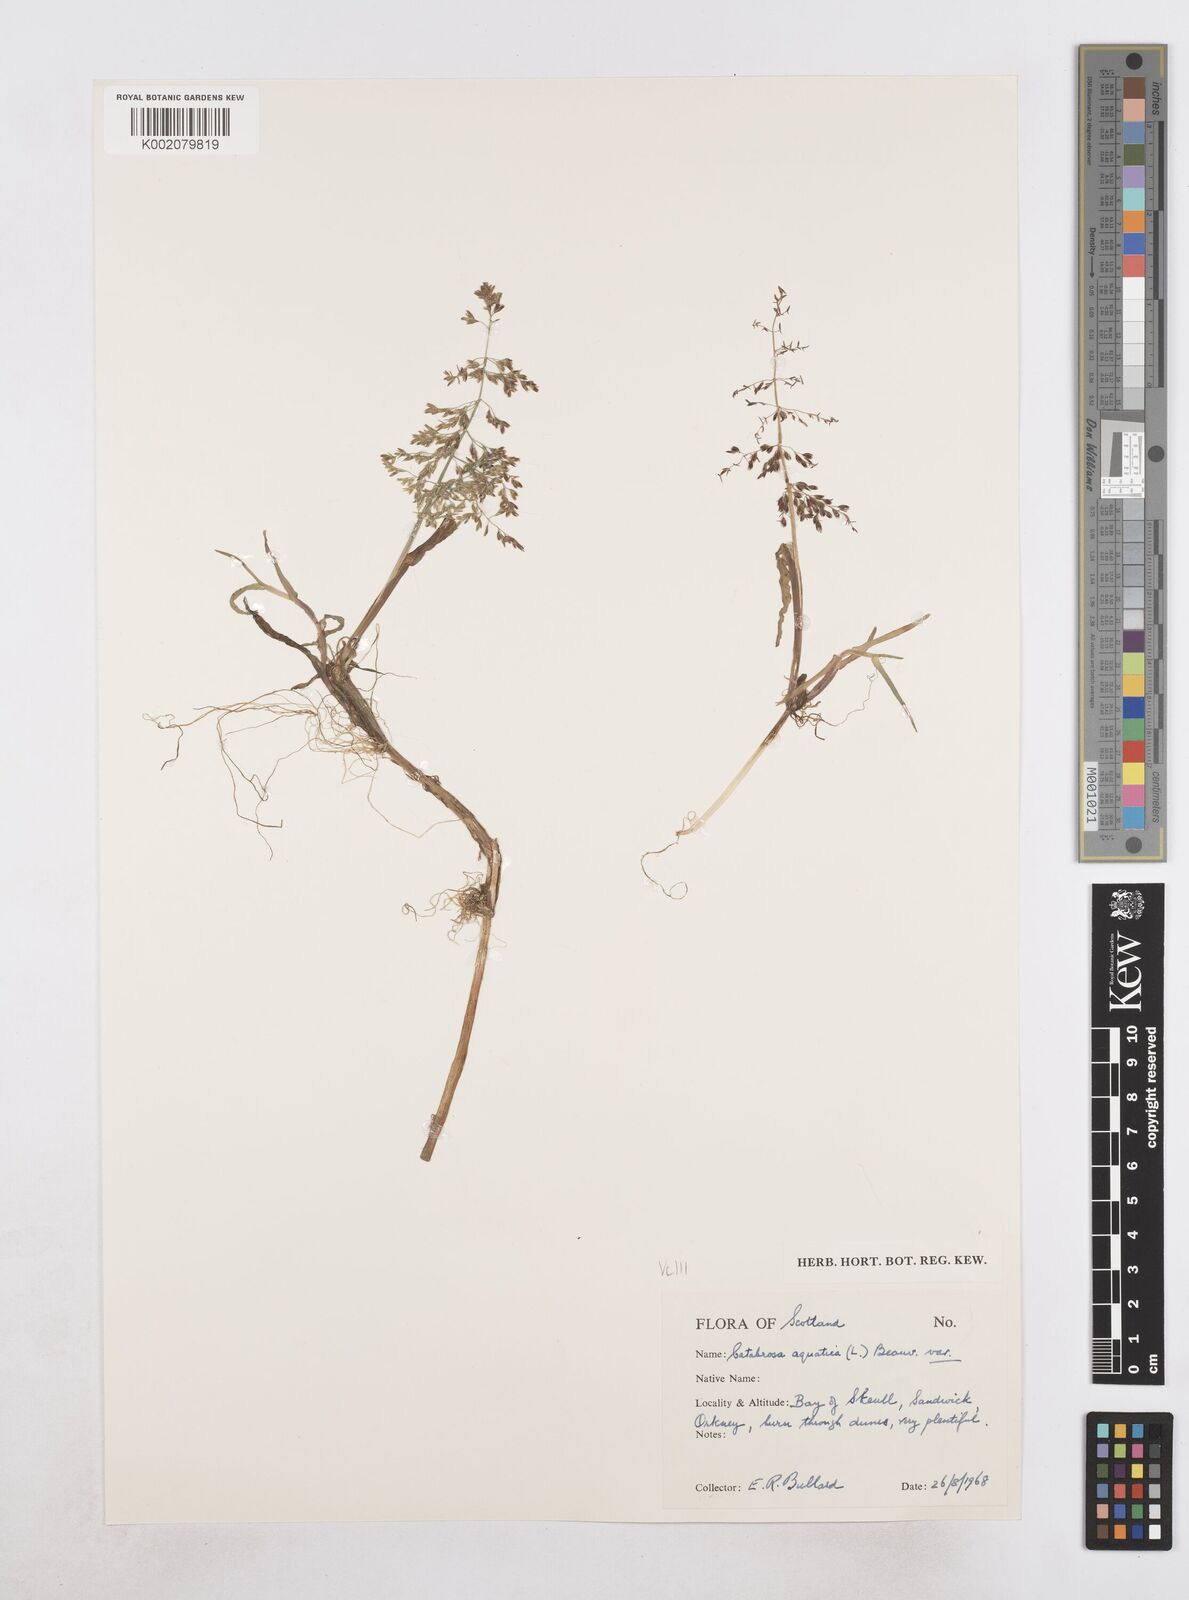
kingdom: Plantae
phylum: Tracheophyta
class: Liliopsida
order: Poales
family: Poaceae
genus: Catabrosa
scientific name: Catabrosa aquatica
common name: Whorl-grass
